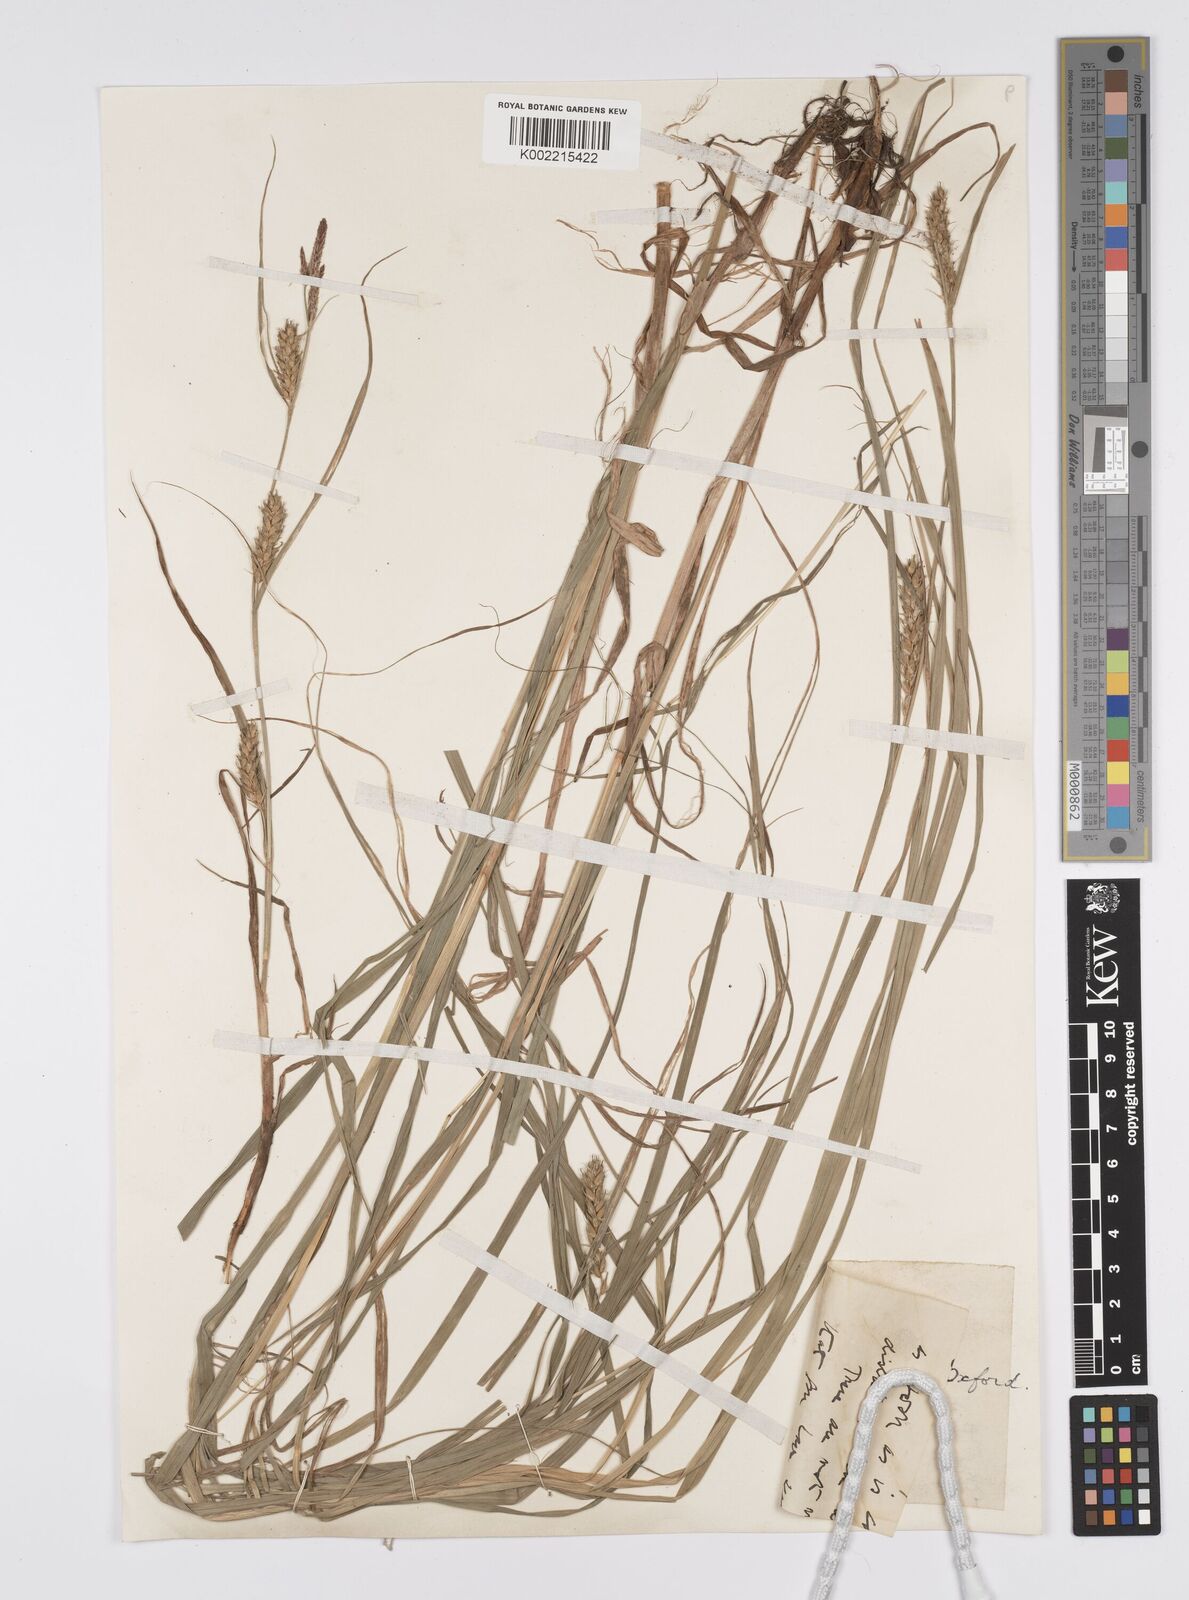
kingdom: Plantae
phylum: Tracheophyta
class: Liliopsida
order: Poales
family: Cyperaceae
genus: Carex
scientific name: Carex hirta
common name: Hairy sedge
